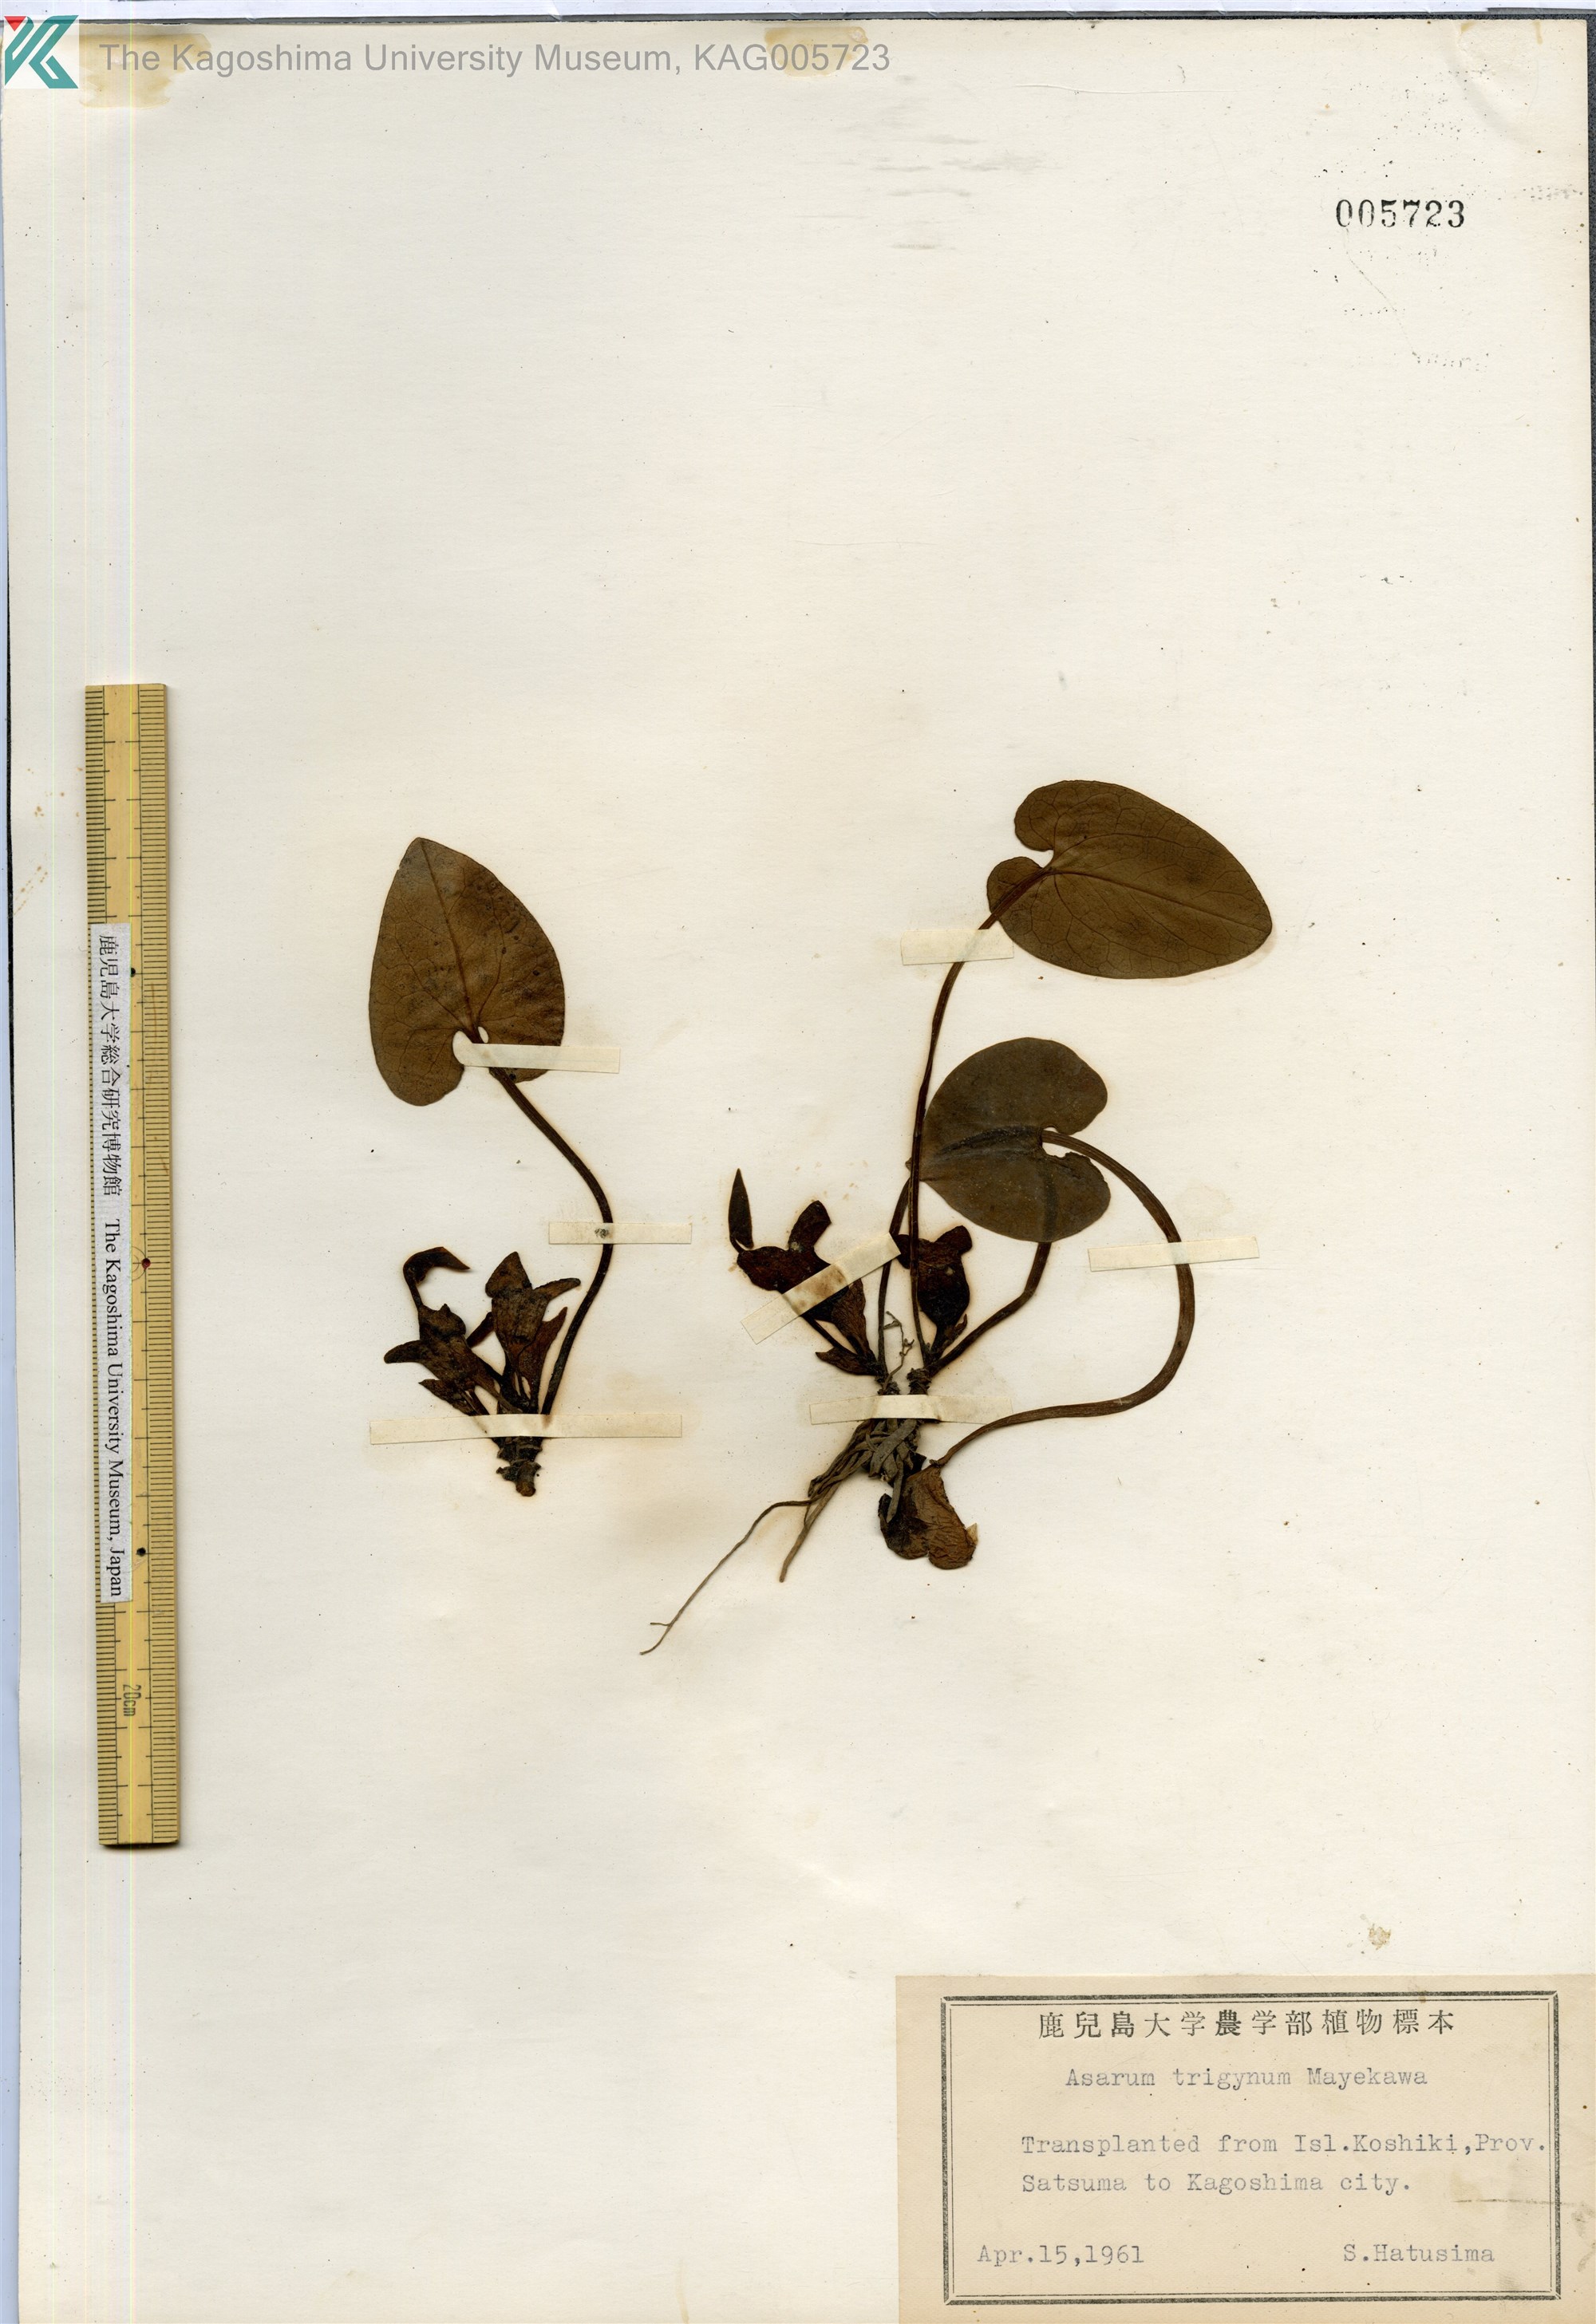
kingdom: Plantae
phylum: Tracheophyta
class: Magnoliopsida
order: Piperales
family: Aristolochiaceae
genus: Asarum
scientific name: Asarum trigynum
